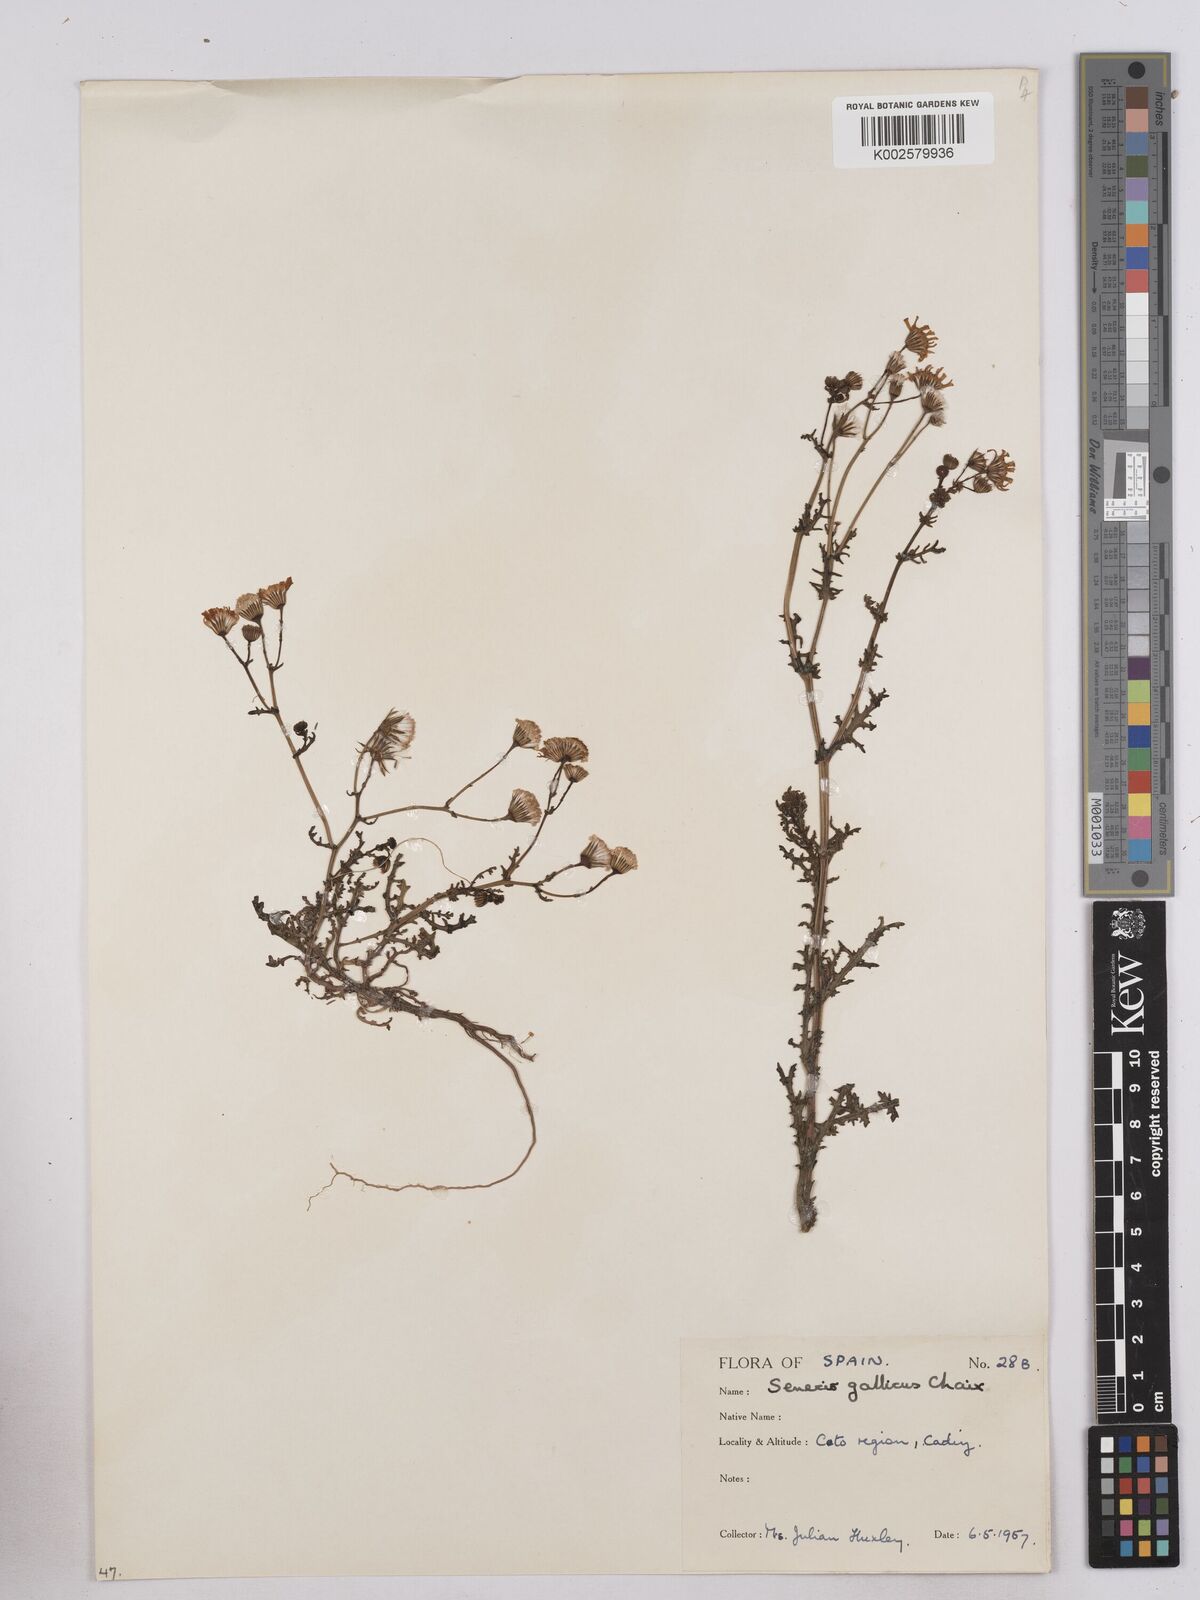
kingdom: Plantae
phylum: Tracheophyta
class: Magnoliopsida
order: Asterales
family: Asteraceae
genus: Senecio
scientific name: Senecio gallicus
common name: French groundsel
